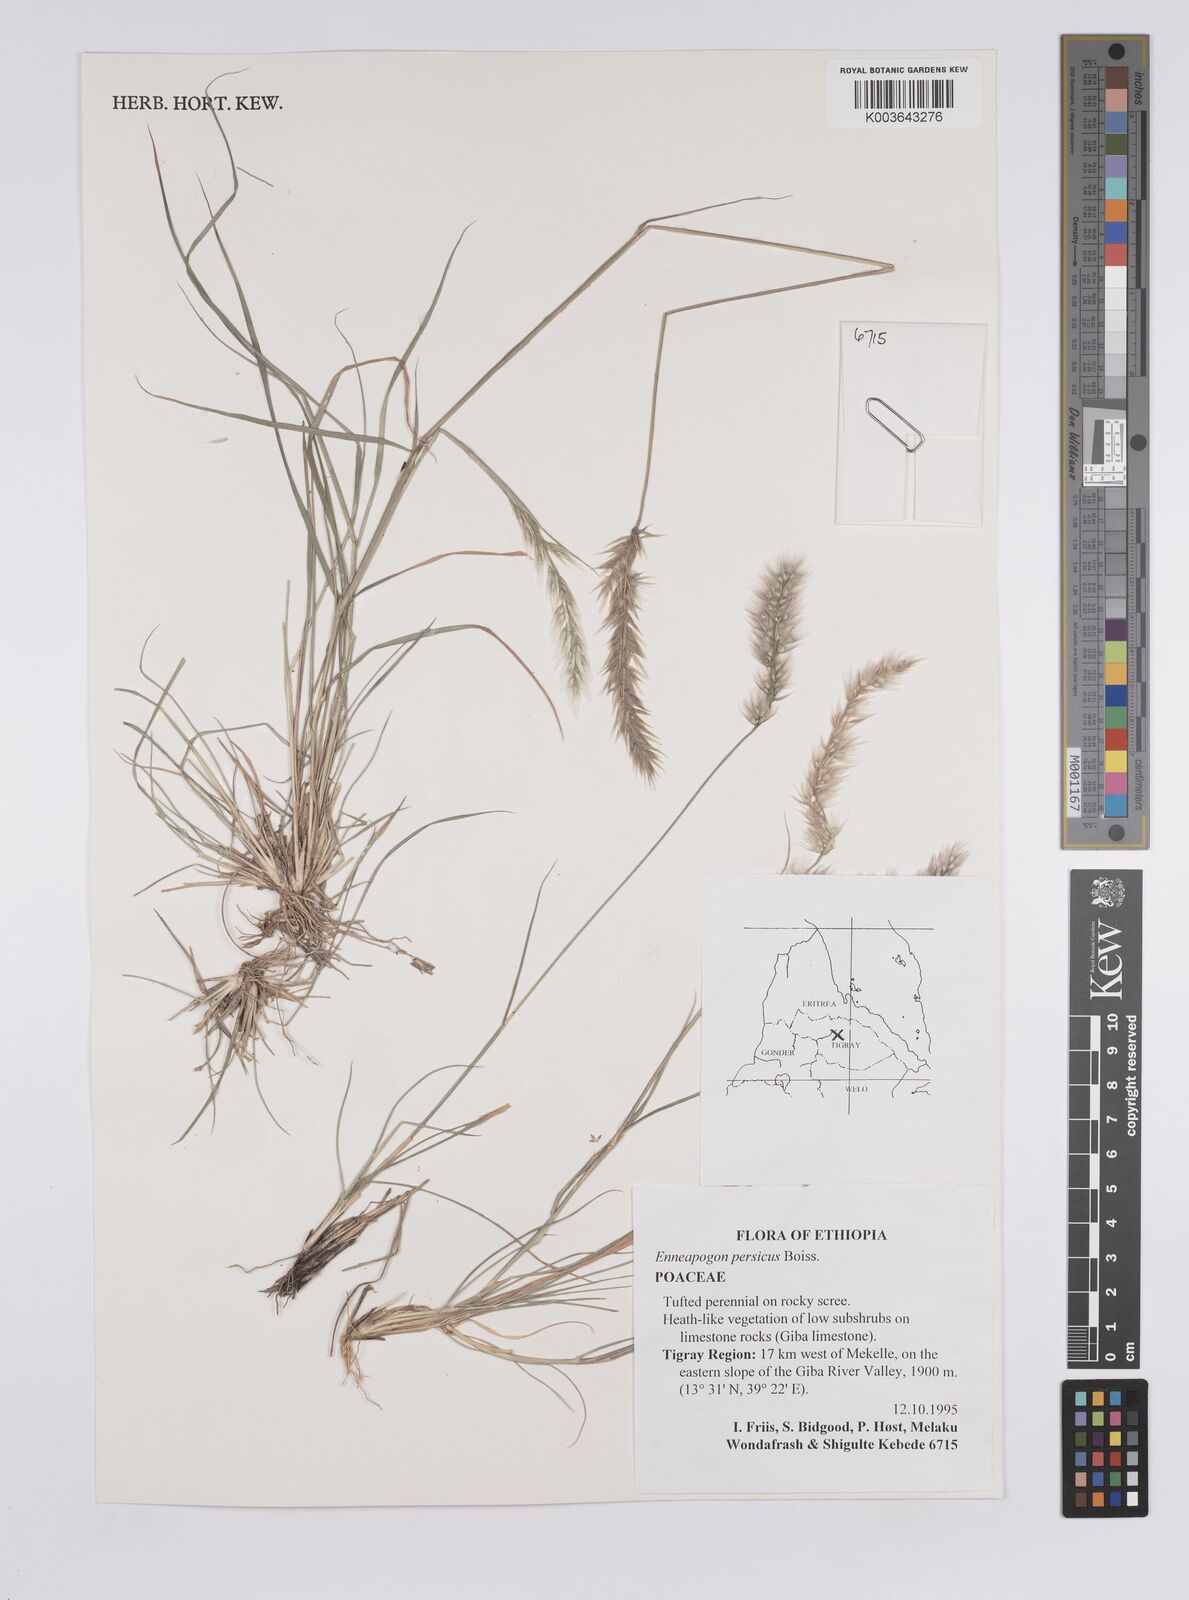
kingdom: Plantae
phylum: Tracheophyta
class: Liliopsida
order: Poales
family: Poaceae
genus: Enneapogon
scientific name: Enneapogon persicus
